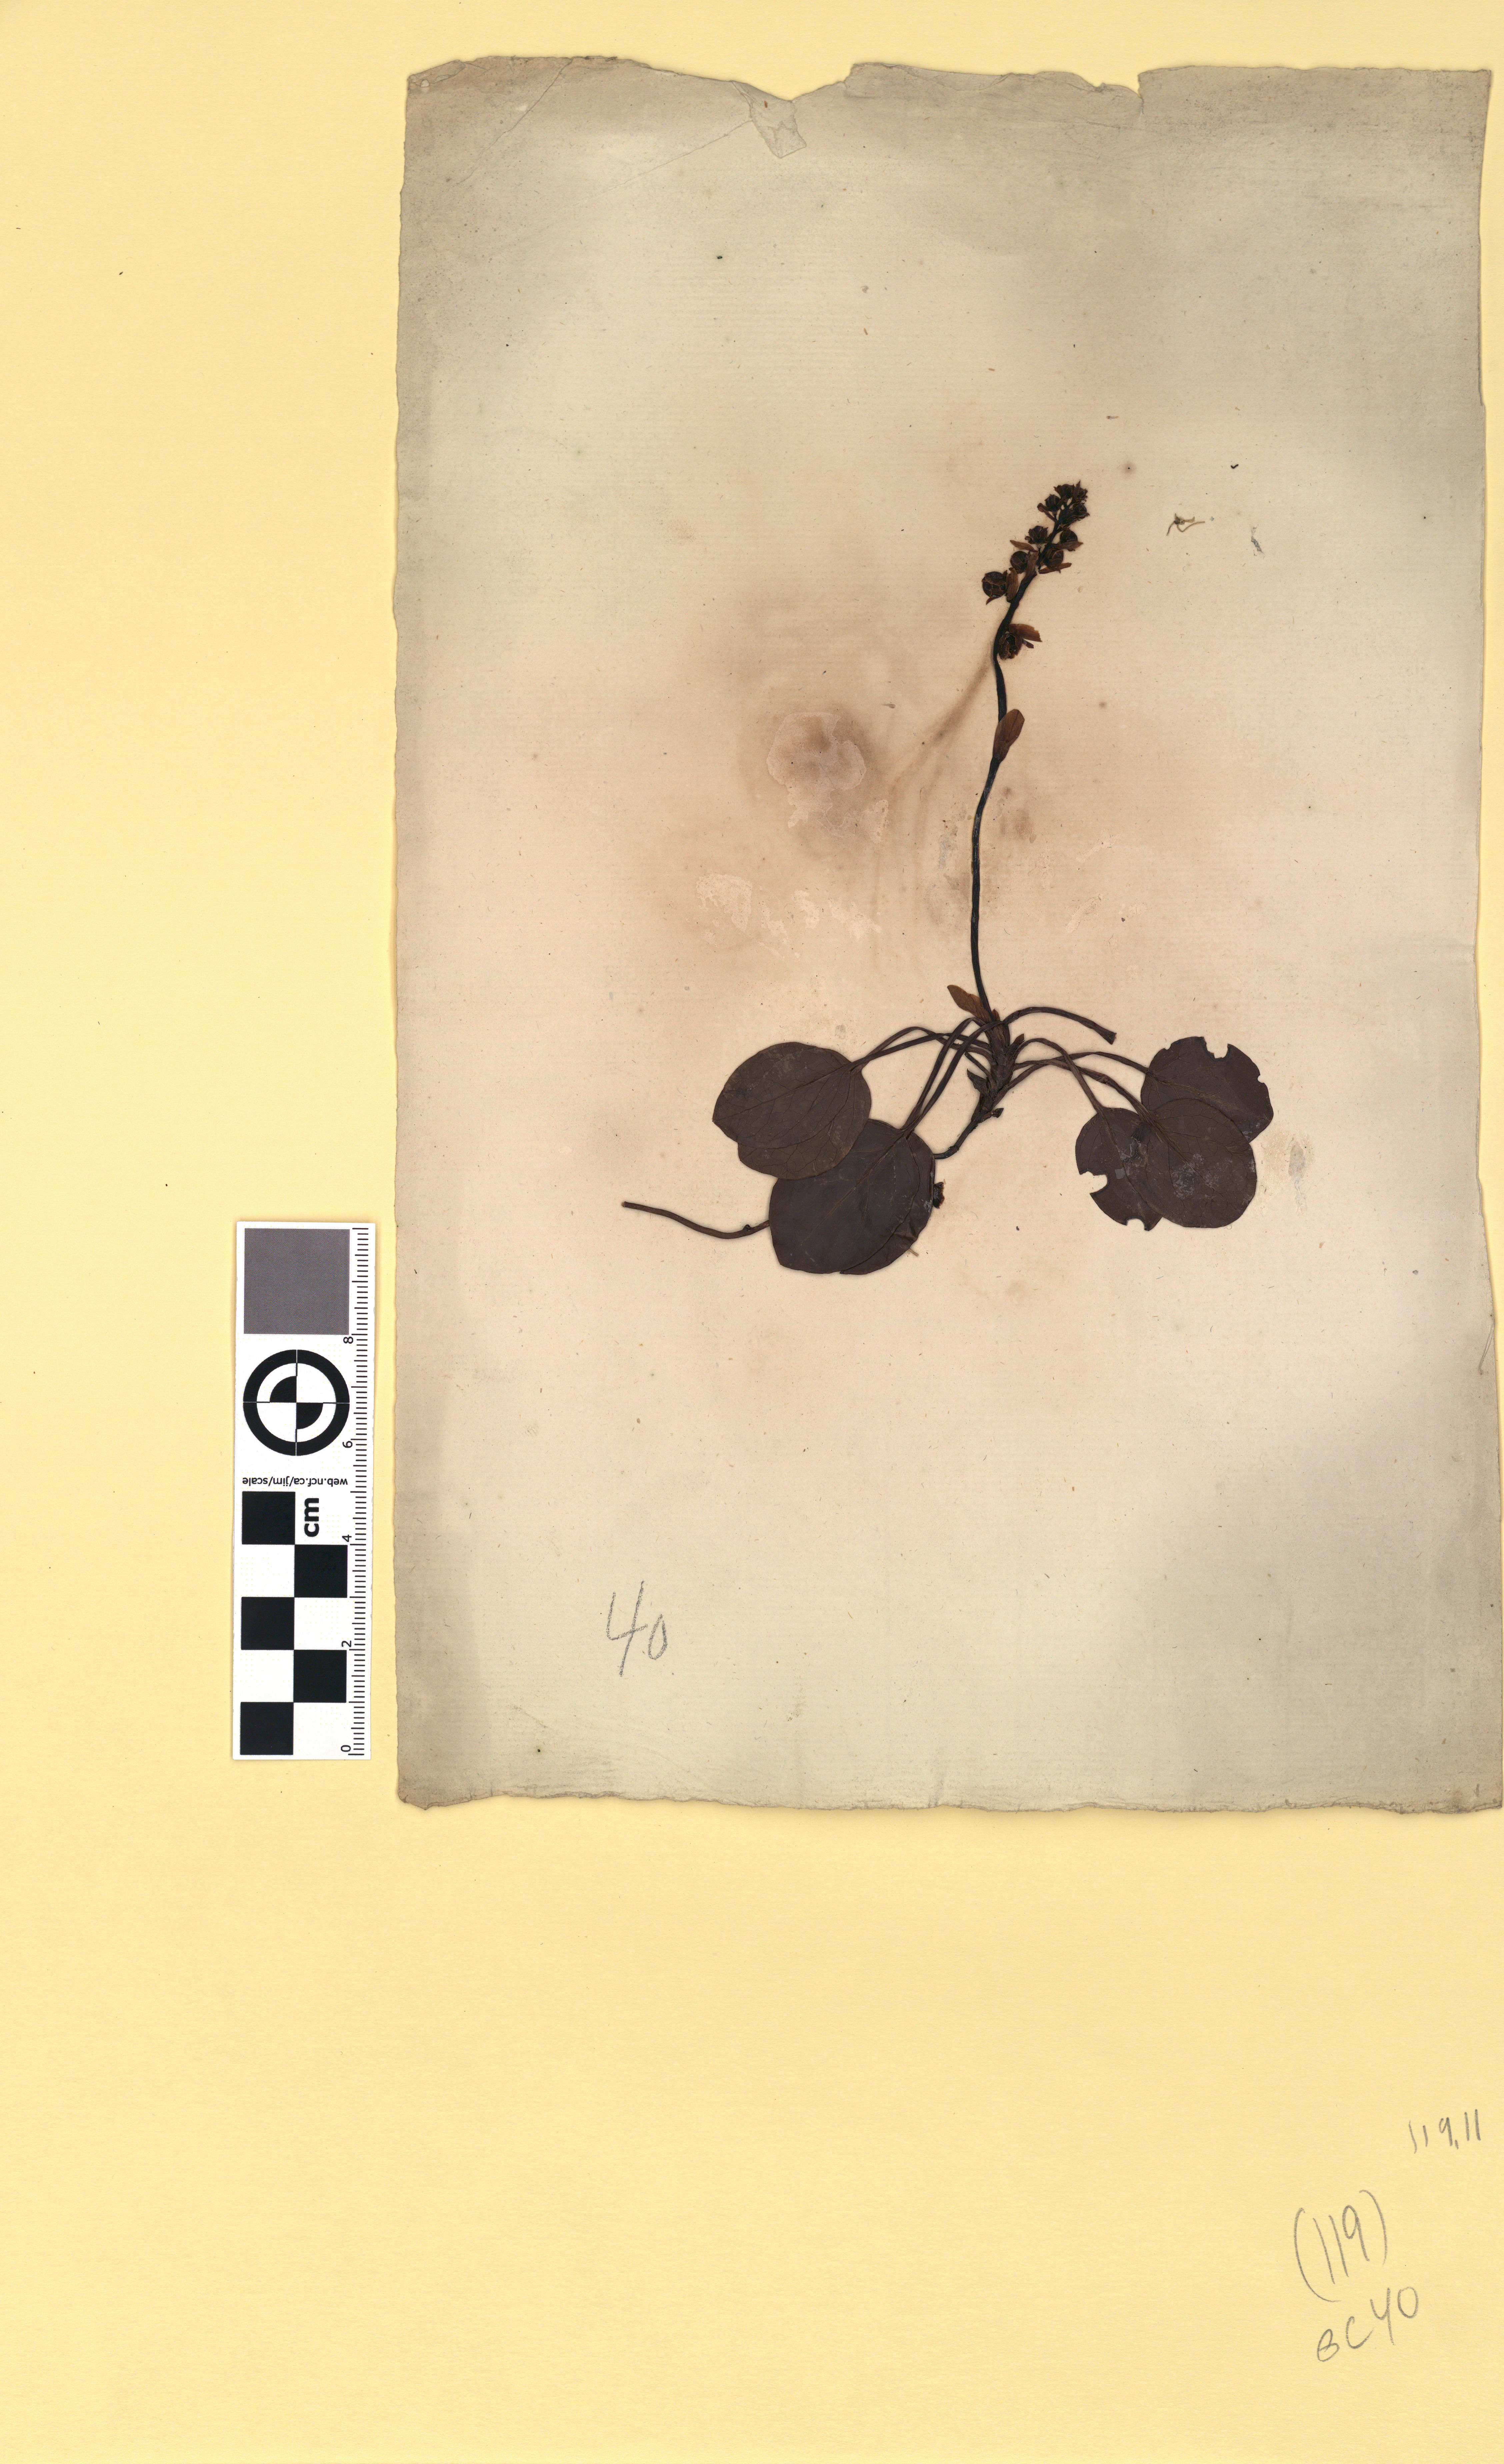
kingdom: Plantae
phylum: Tracheophyta
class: Magnoliopsida
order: Ericales
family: Ericaceae
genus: Pyrola
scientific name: Pyrola rotundifolia
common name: Round-leaved wintergreen
